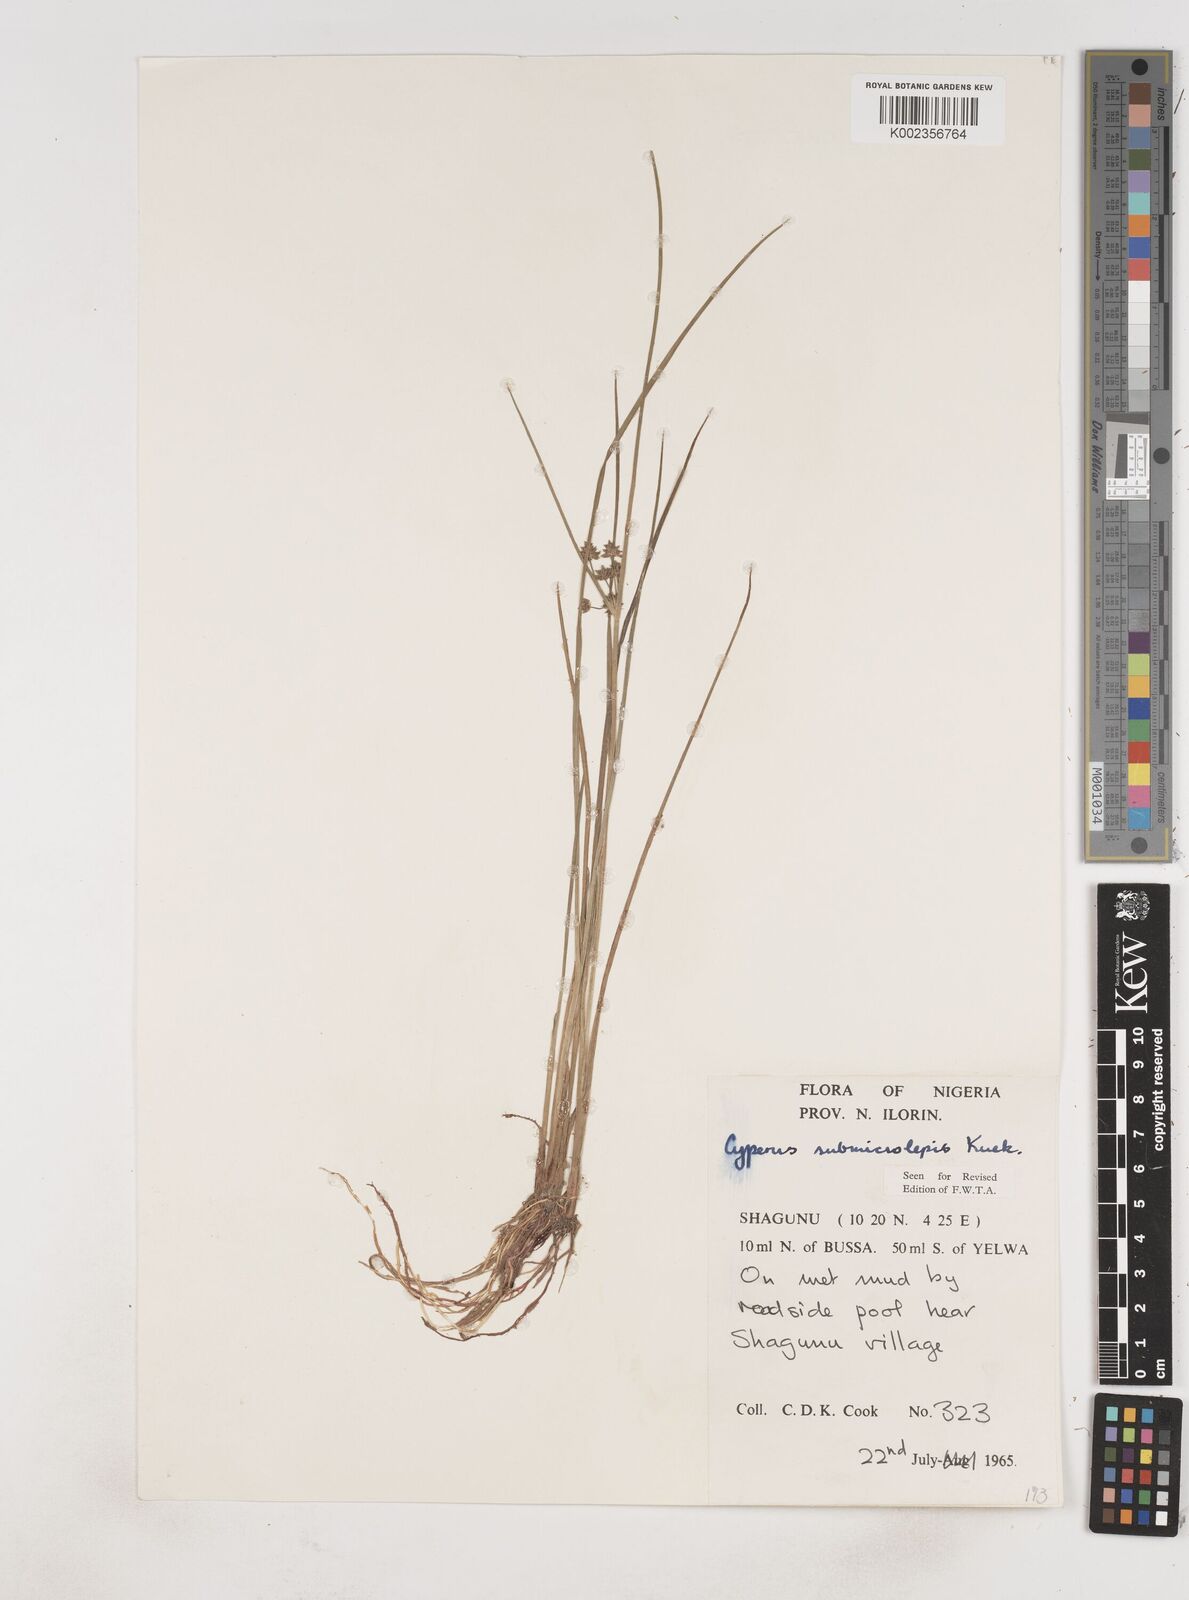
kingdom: Plantae
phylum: Tracheophyta
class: Liliopsida
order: Poales
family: Cyperaceae
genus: Cyperus
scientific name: Cyperus submicrolepis
